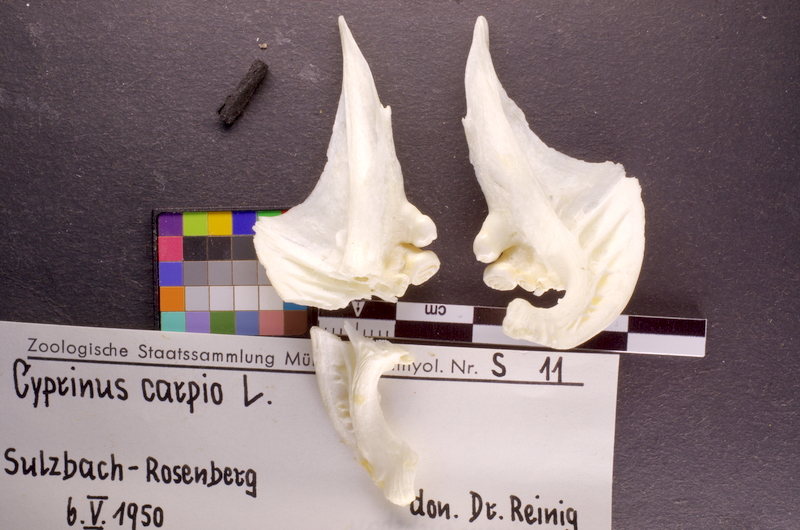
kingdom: Animalia
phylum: Chordata
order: Cypriniformes
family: Cyprinidae
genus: Cyprinus
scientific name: Cyprinus carpio
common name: Common carp
